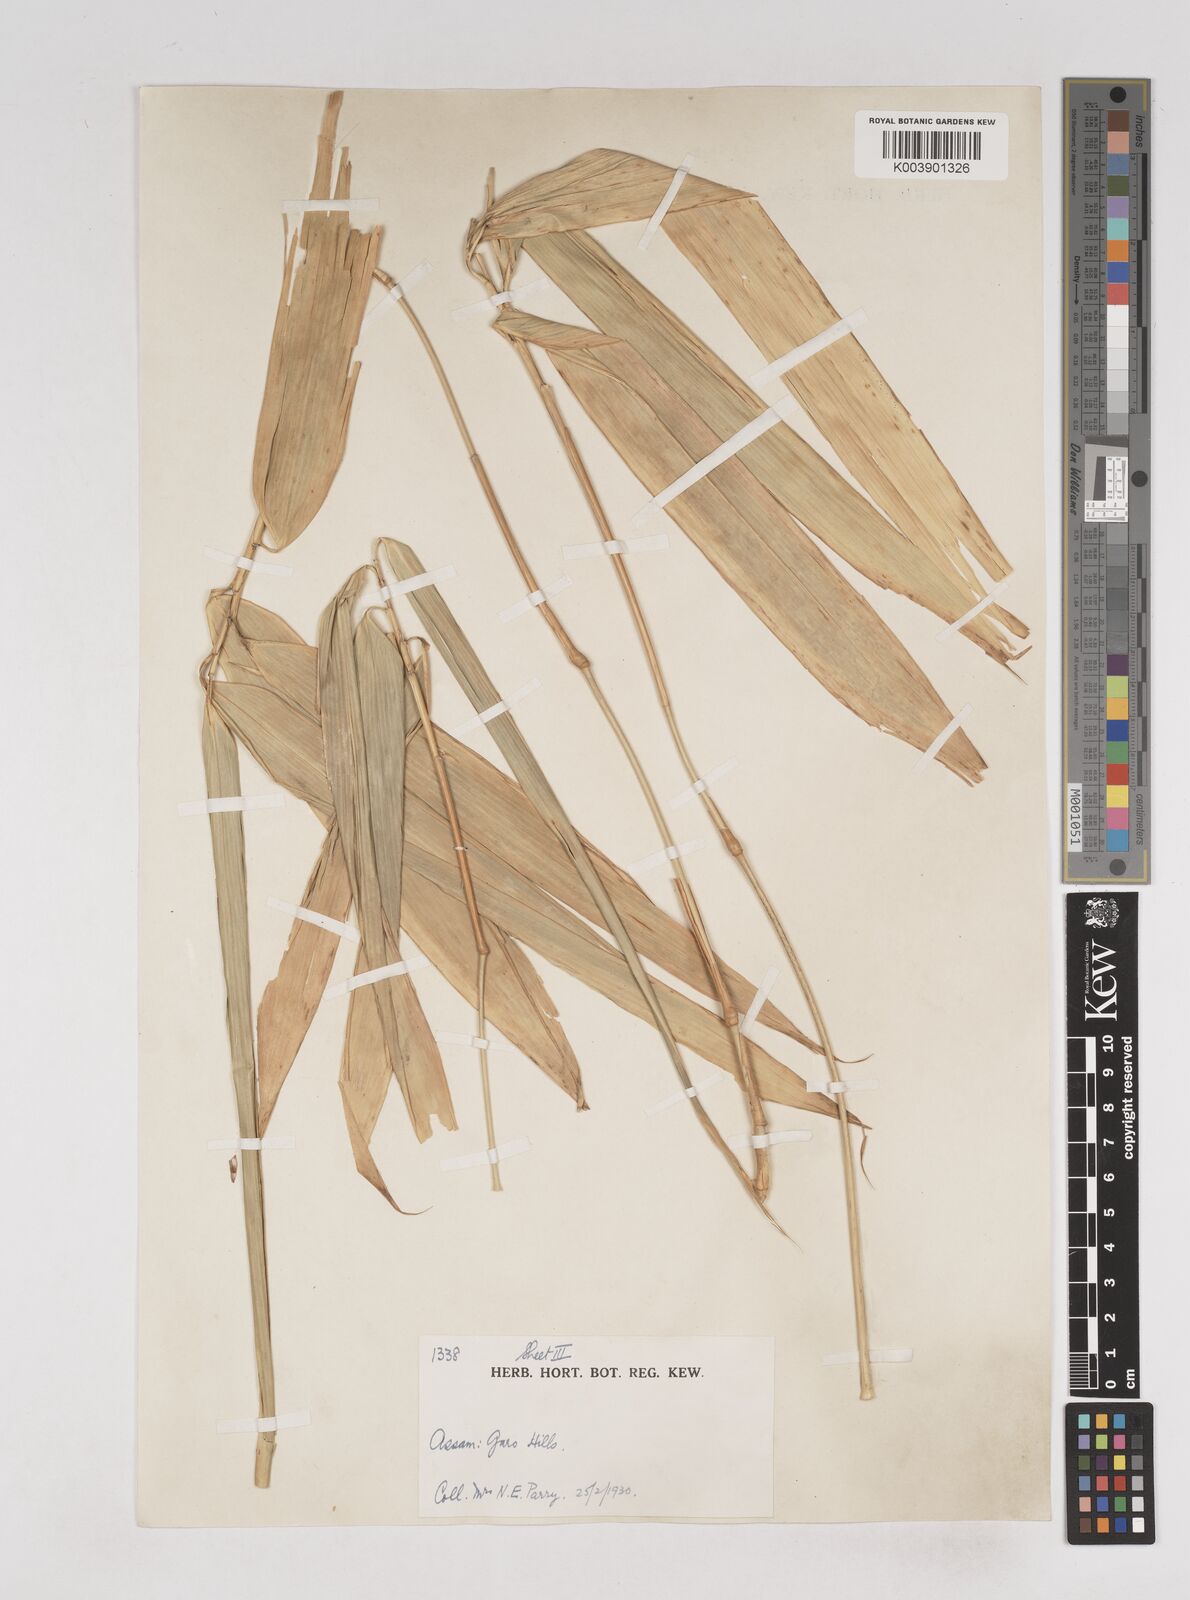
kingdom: Plantae
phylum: Tracheophyta
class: Liliopsida
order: Poales
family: Poaceae
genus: Melocanna
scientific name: Melocanna
